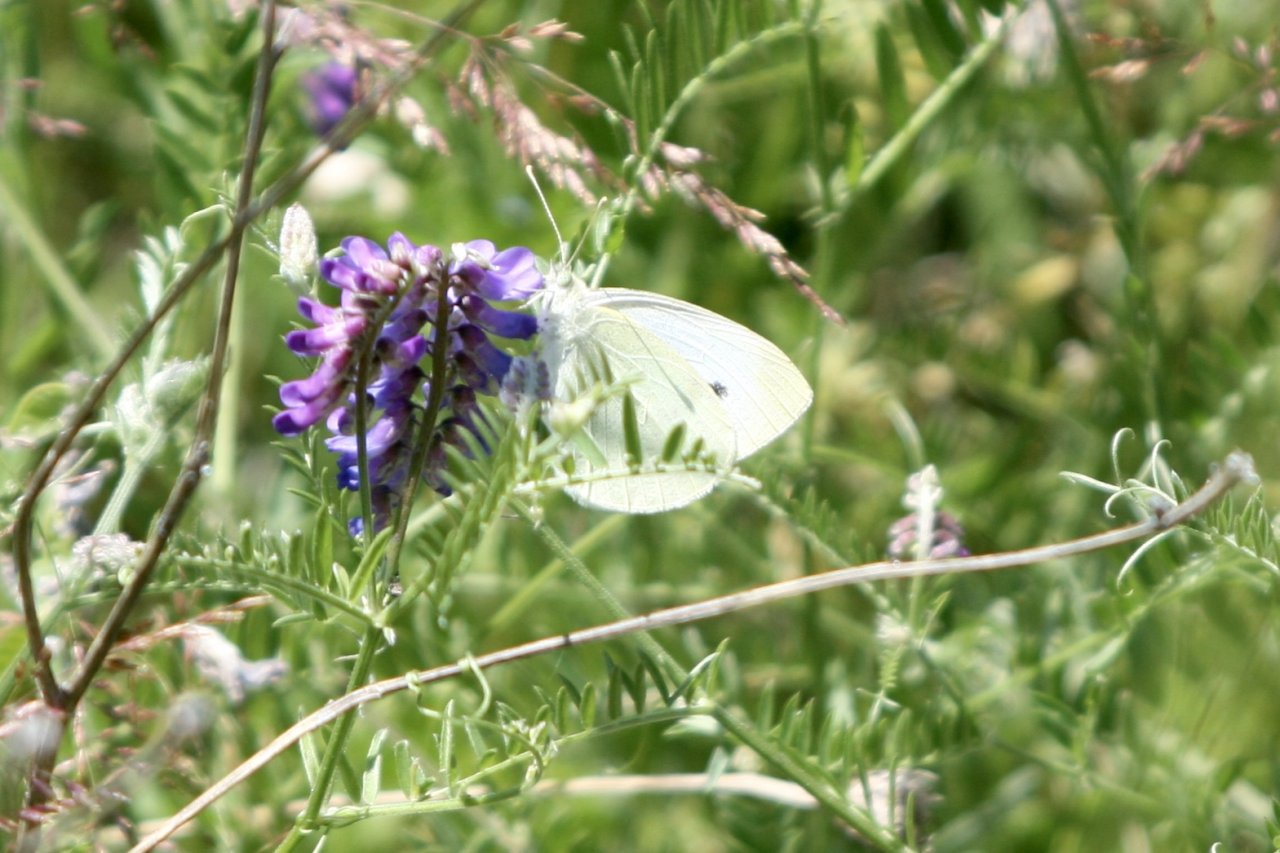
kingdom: Animalia
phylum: Arthropoda
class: Insecta
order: Lepidoptera
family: Pieridae
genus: Pieris
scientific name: Pieris rapae
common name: Cabbage White
